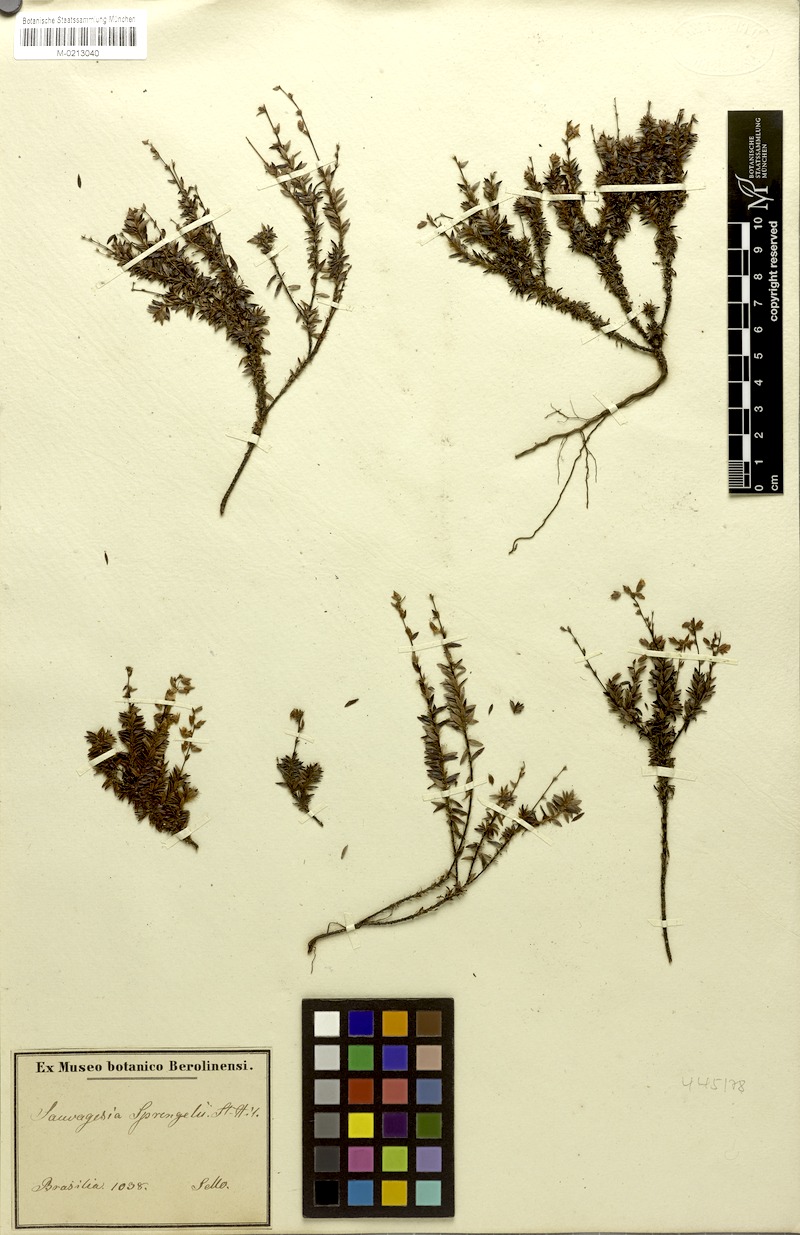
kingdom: Plantae
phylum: Tracheophyta
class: Magnoliopsida
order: Malpighiales
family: Ochnaceae
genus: Sauvagesia
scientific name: Sauvagesia sprengelii
